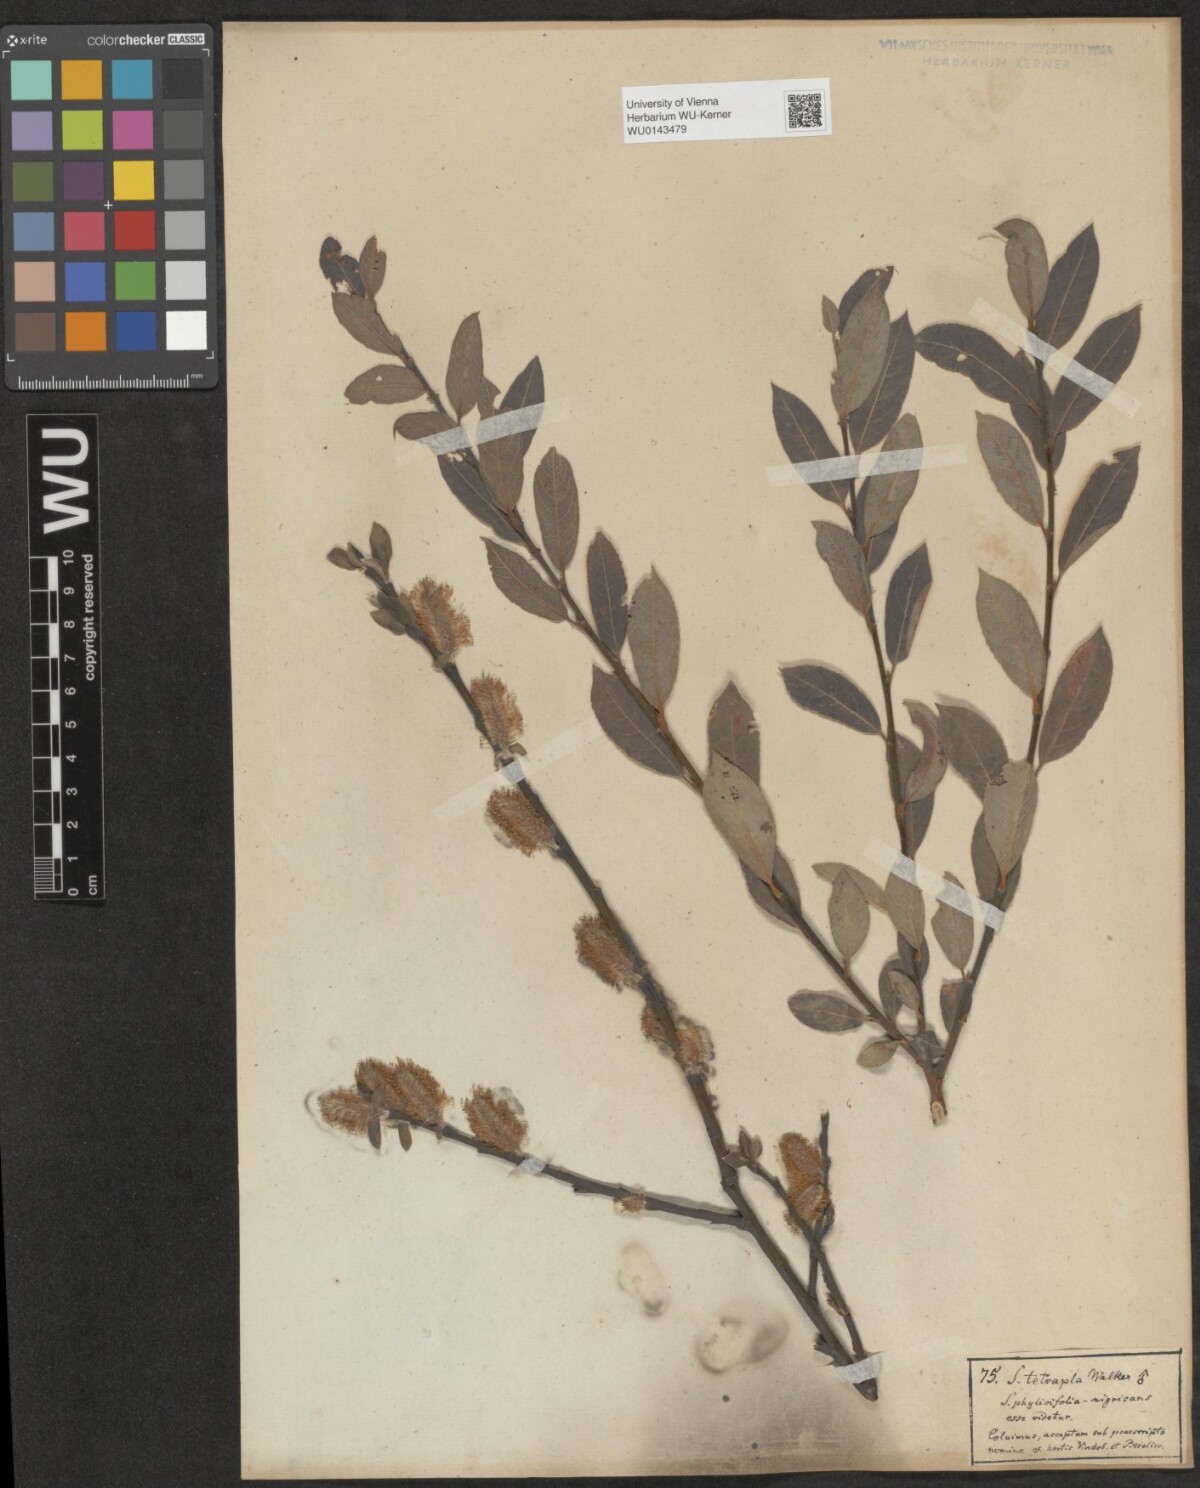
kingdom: Plantae
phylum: Tracheophyta
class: Magnoliopsida
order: Malpighiales
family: Salicaceae
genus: Salix
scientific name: Salix tetrapla
